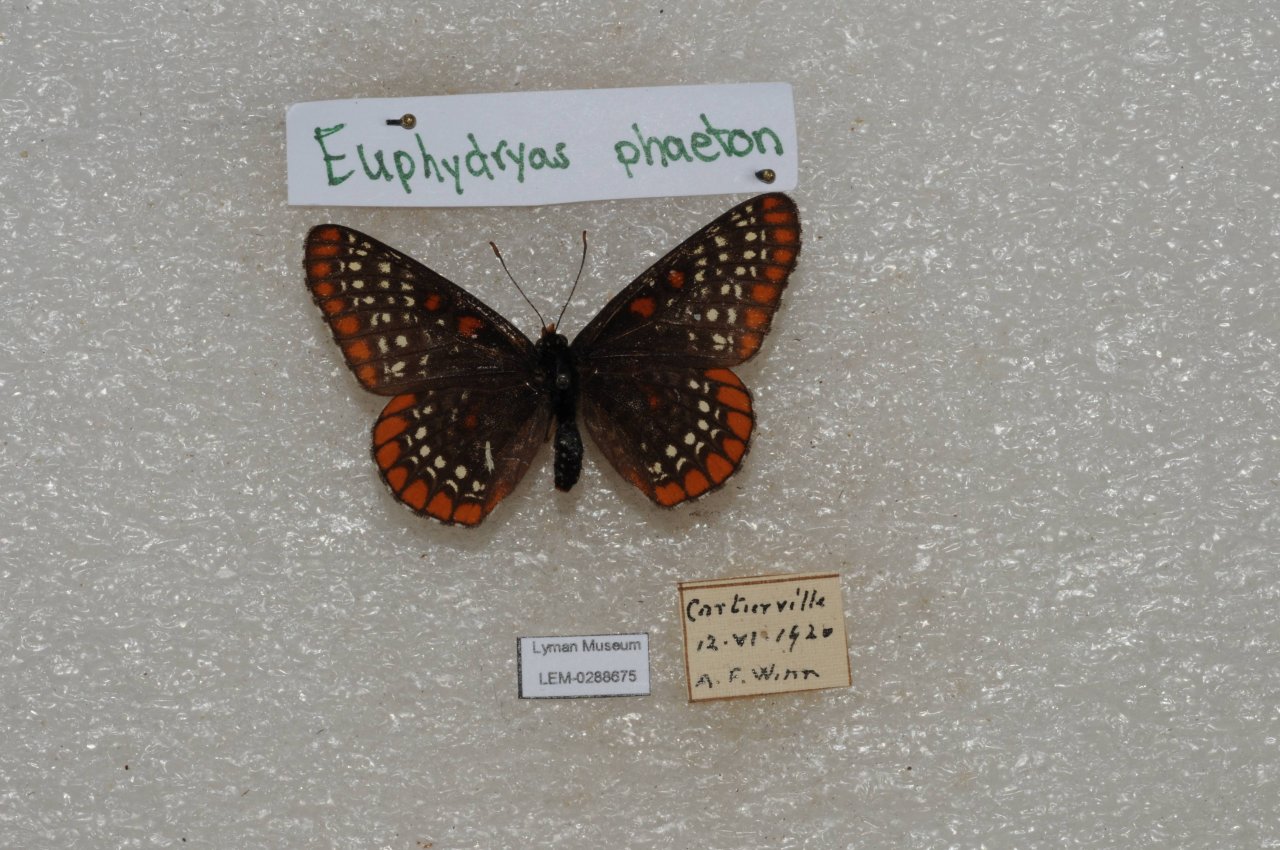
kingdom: Animalia
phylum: Arthropoda
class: Insecta
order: Lepidoptera
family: Nymphalidae
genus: Euphydryas
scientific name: Euphydryas phaeton
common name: Baltimore Checkerspot
